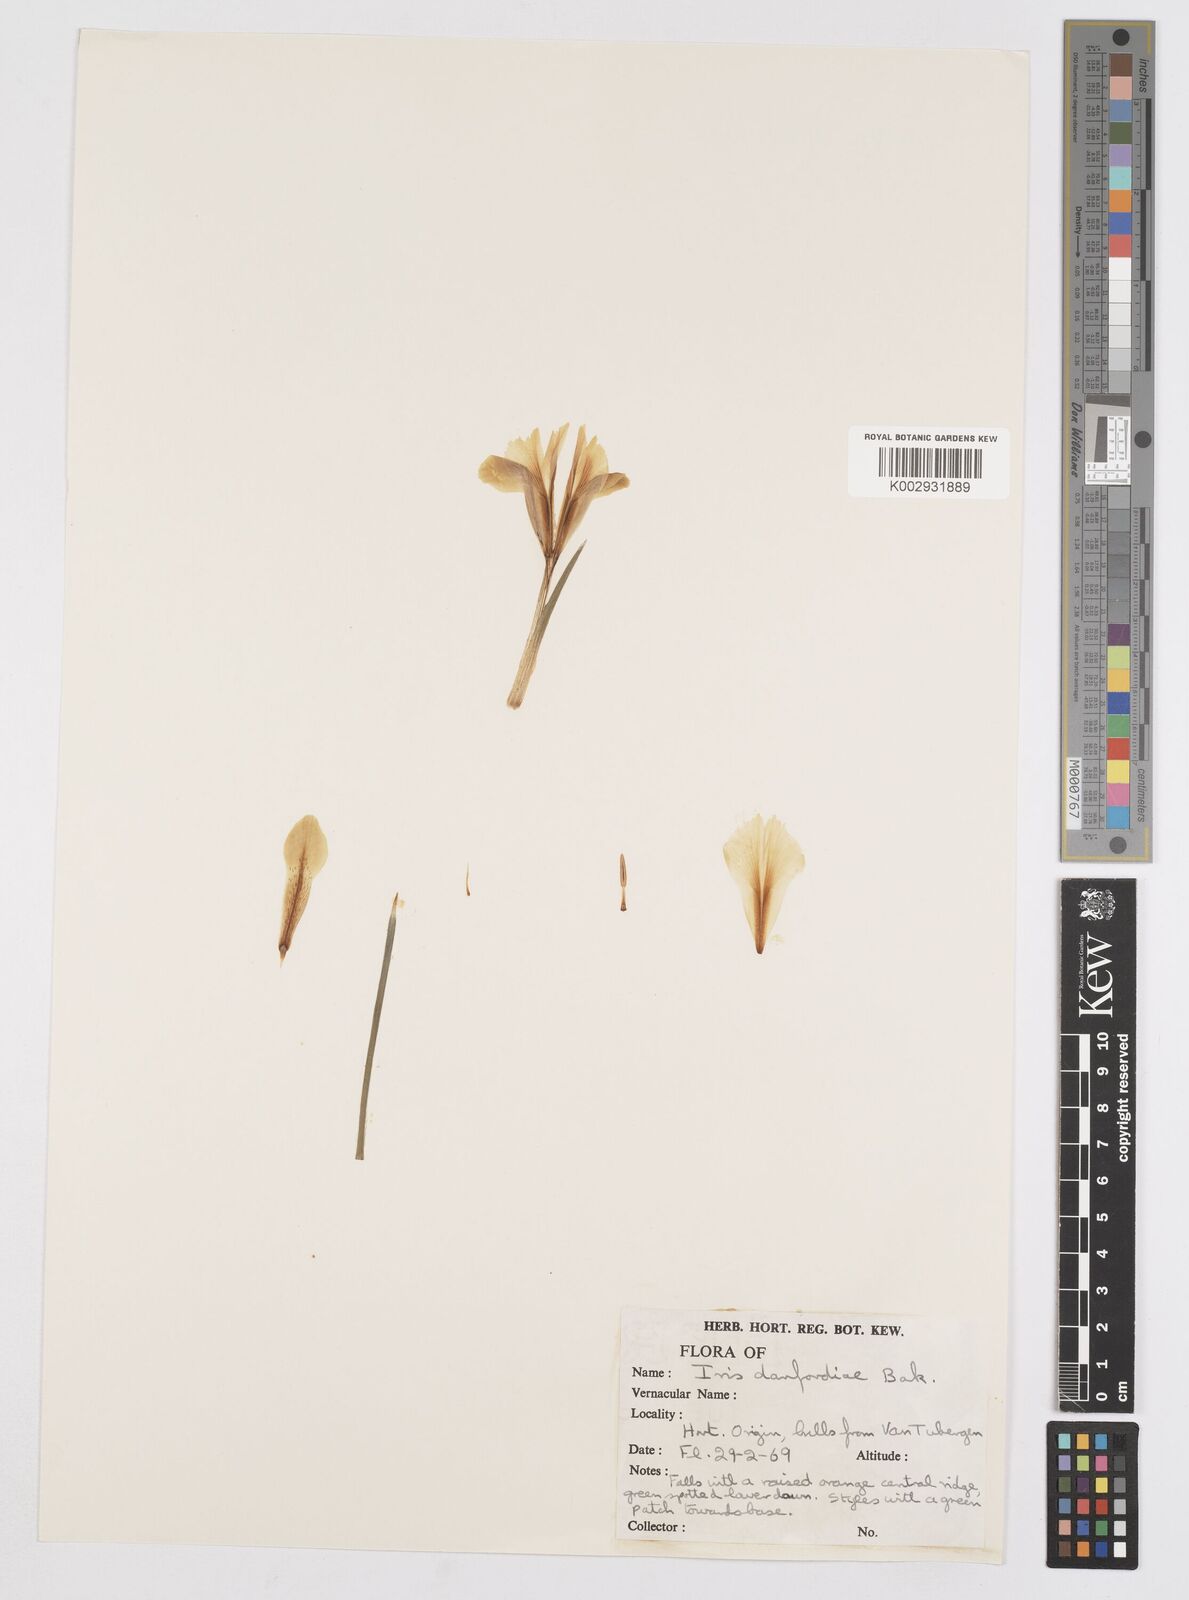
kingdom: Plantae
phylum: Tracheophyta
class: Liliopsida
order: Asparagales
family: Iridaceae
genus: Iris
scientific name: Iris danfordiae
